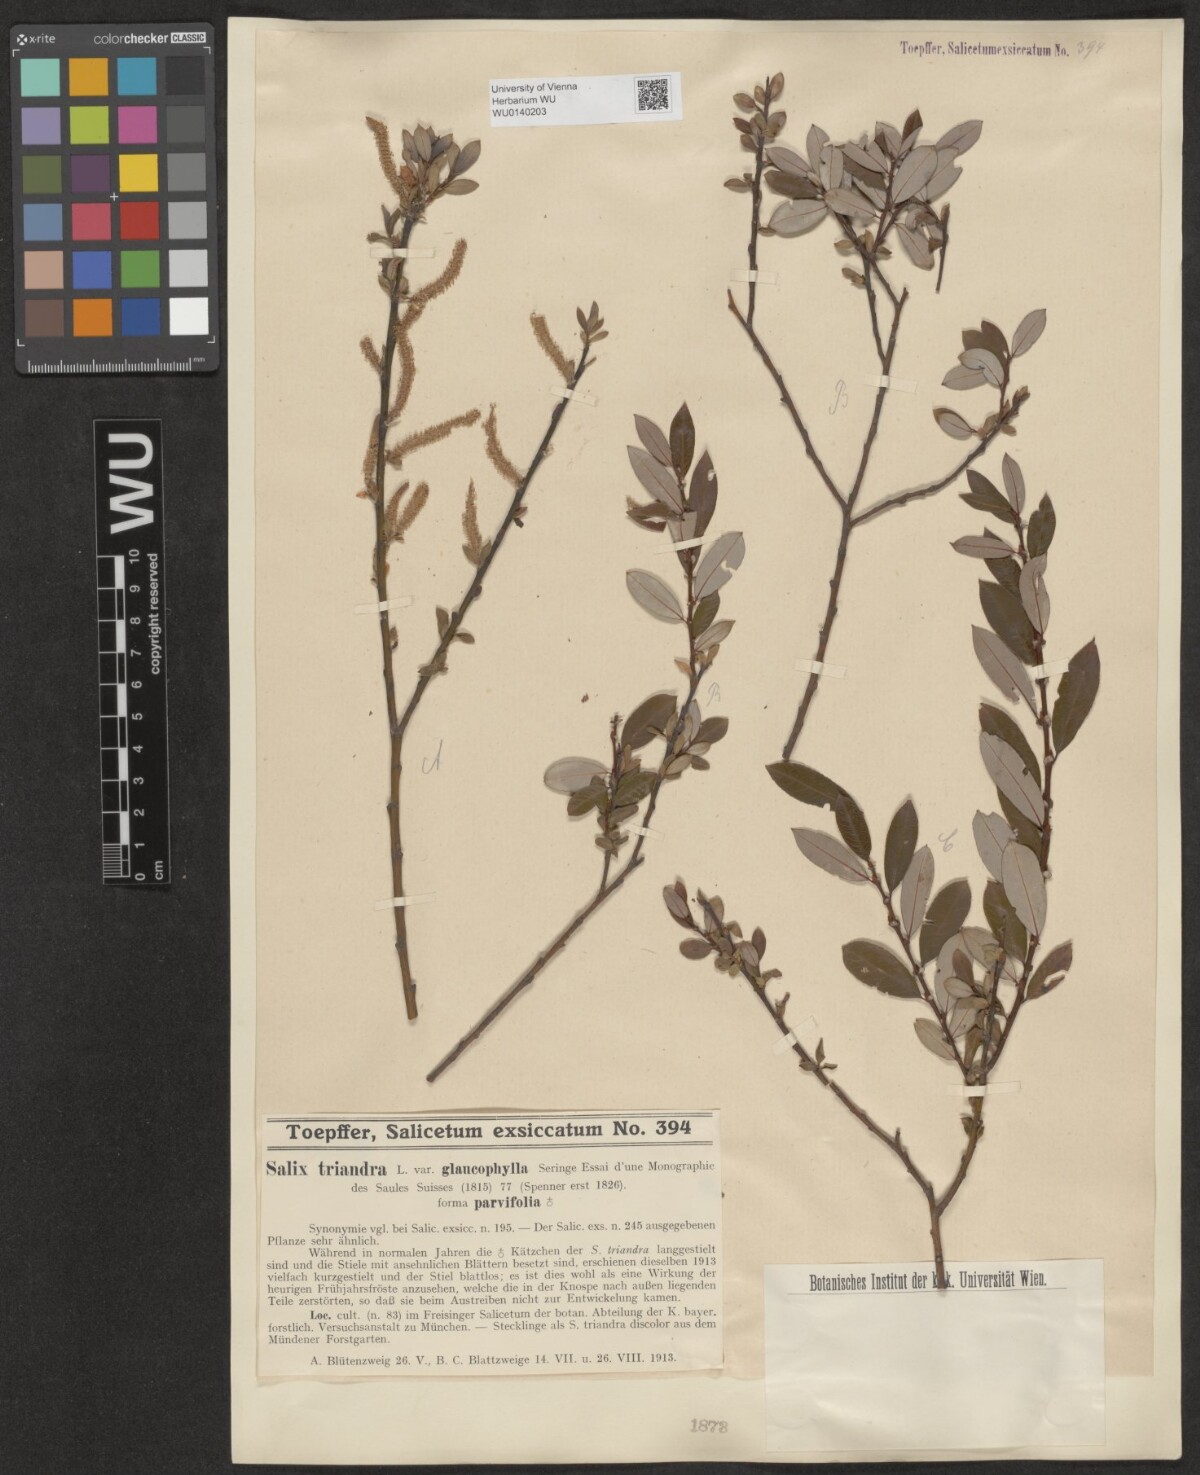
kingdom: Plantae
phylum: Tracheophyta
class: Magnoliopsida
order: Malpighiales
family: Salicaceae
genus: Salix
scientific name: Salix triandra
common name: Almond willow
